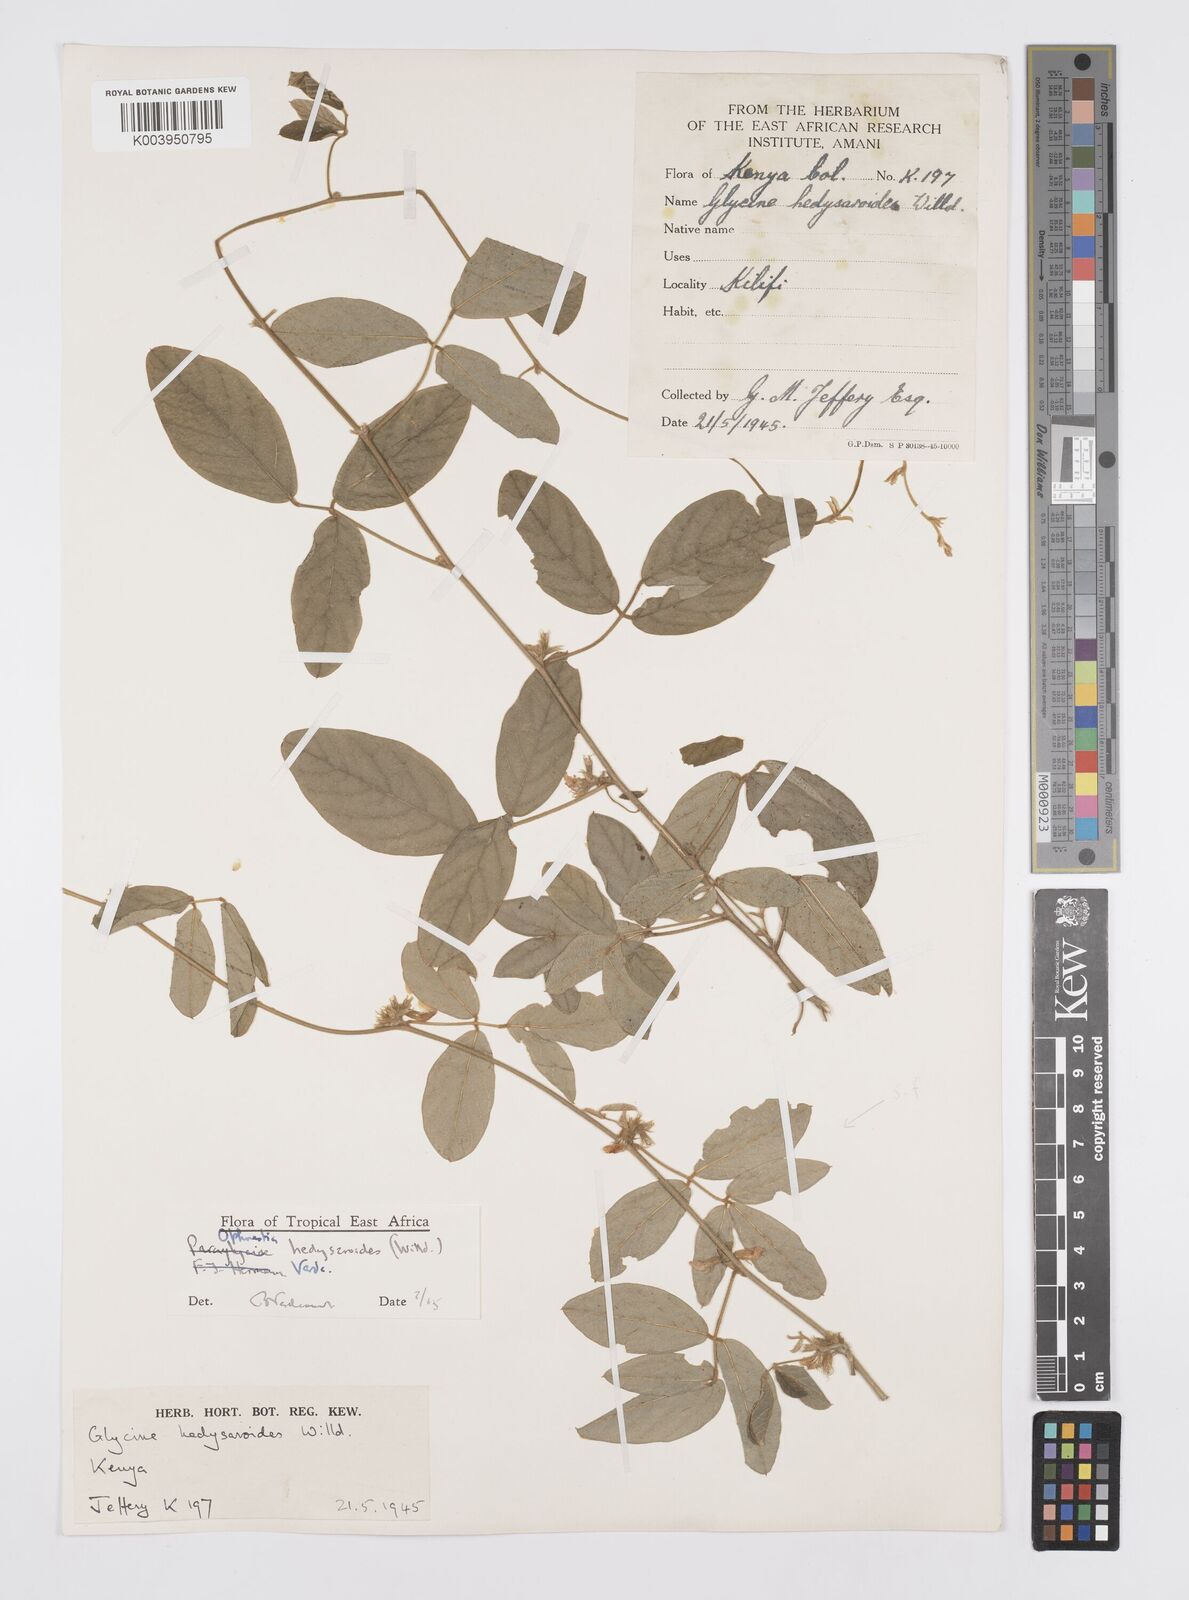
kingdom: Plantae
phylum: Tracheophyta
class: Magnoliopsida
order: Fabales
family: Fabaceae
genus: Ophrestia
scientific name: Ophrestia hedysaroides
